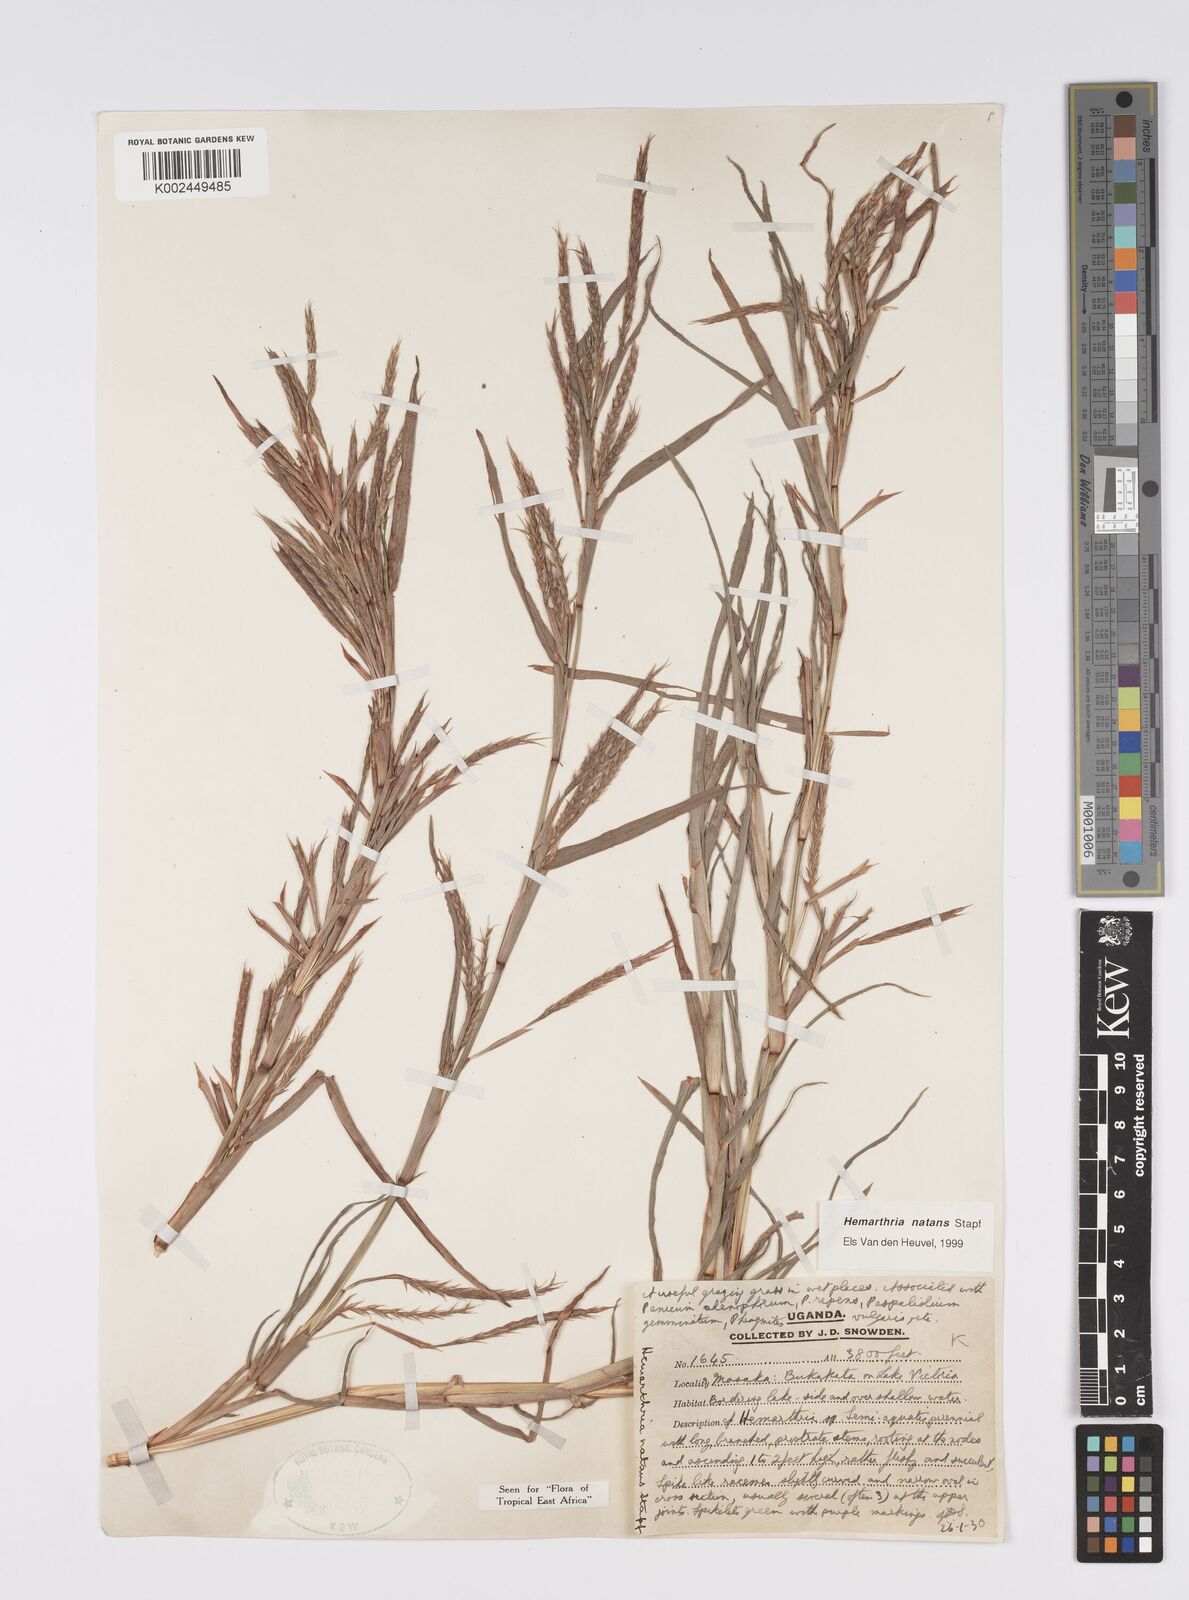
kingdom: Plantae
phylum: Tracheophyta
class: Liliopsida
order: Poales
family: Poaceae
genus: Hemarthria
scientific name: Hemarthria natans
